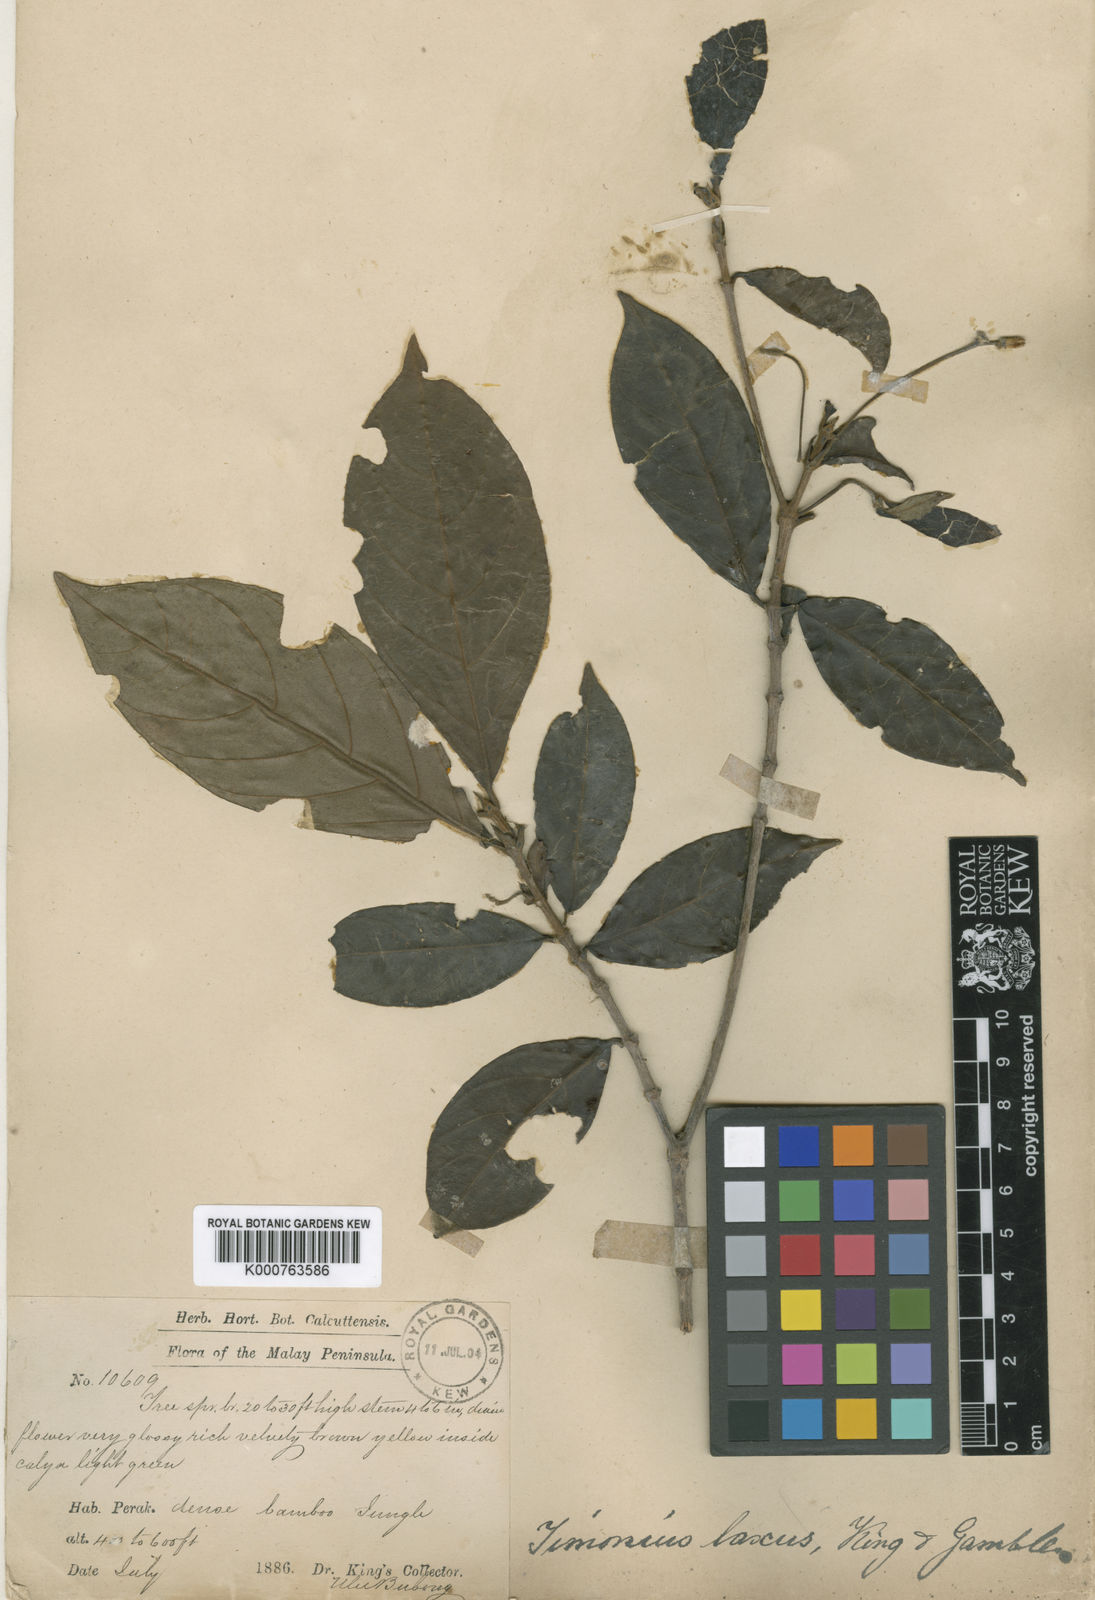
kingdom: Plantae
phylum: Tracheophyta
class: Magnoliopsida
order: Gentianales
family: Rubiaceae
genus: Timonius
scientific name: Timonius laxus
